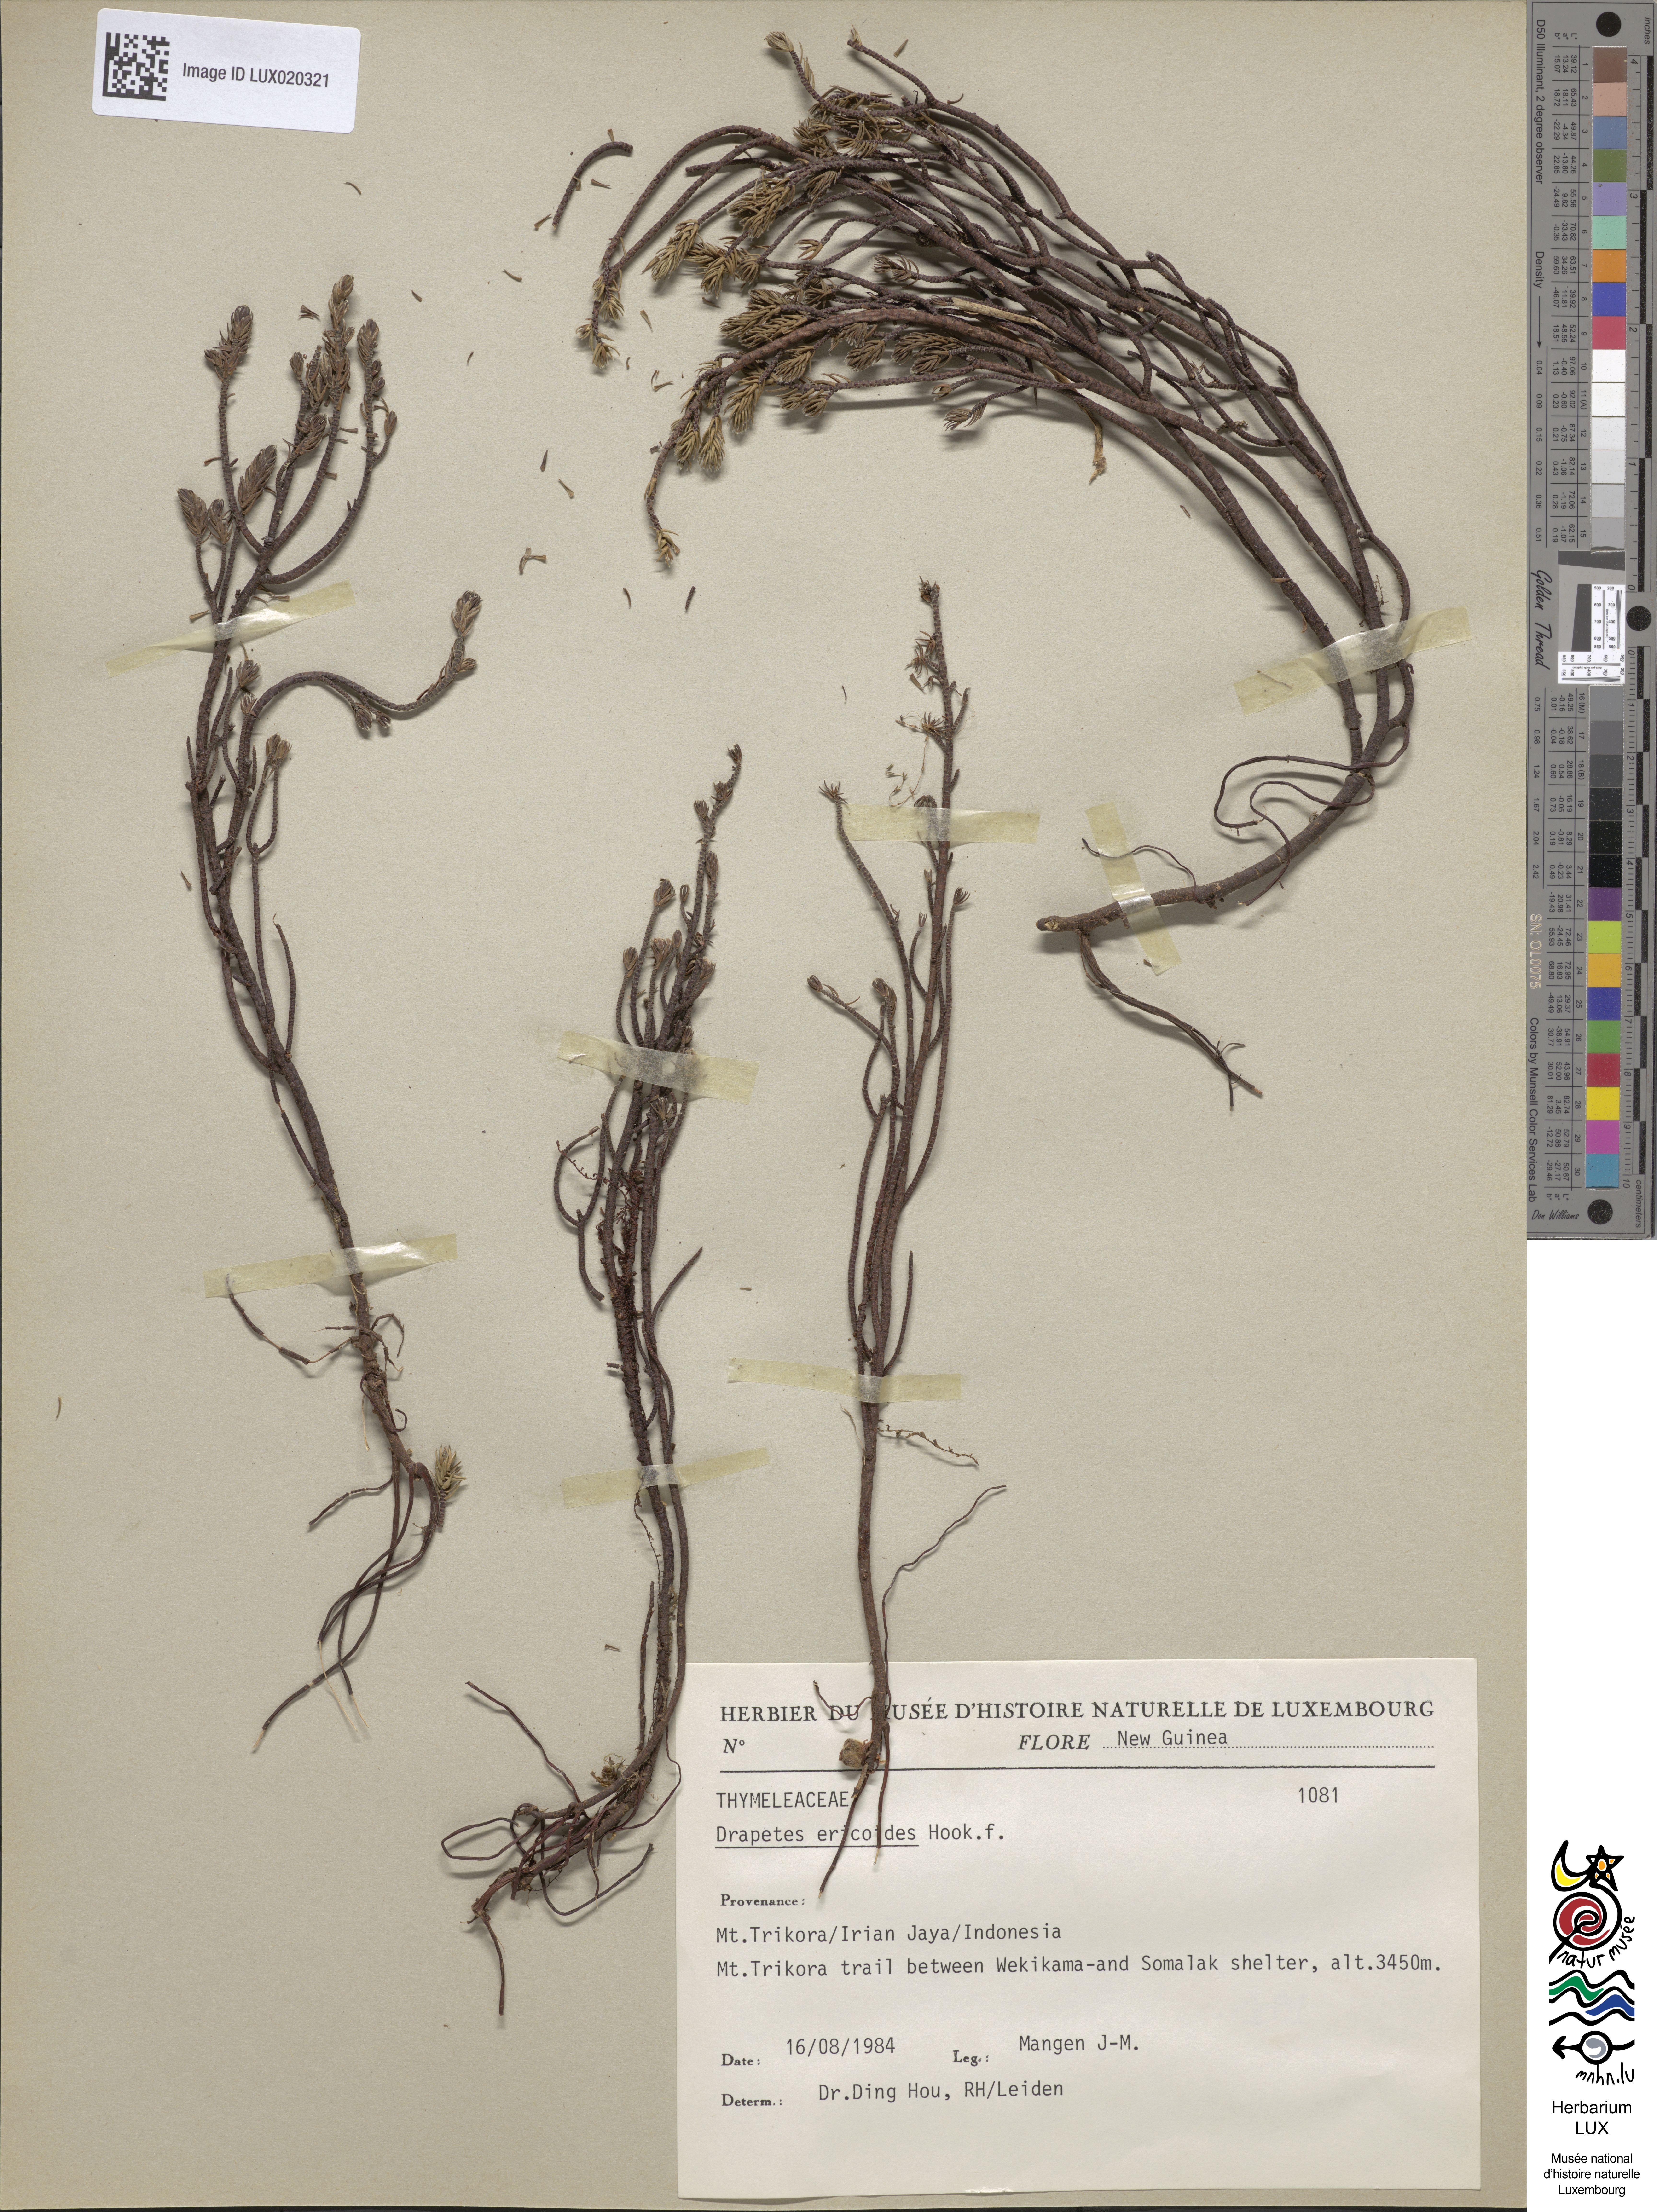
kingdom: Animalia
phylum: Arthropoda
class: Insecta
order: Coleoptera
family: Elateridae
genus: Drapetes
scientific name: Drapetes
